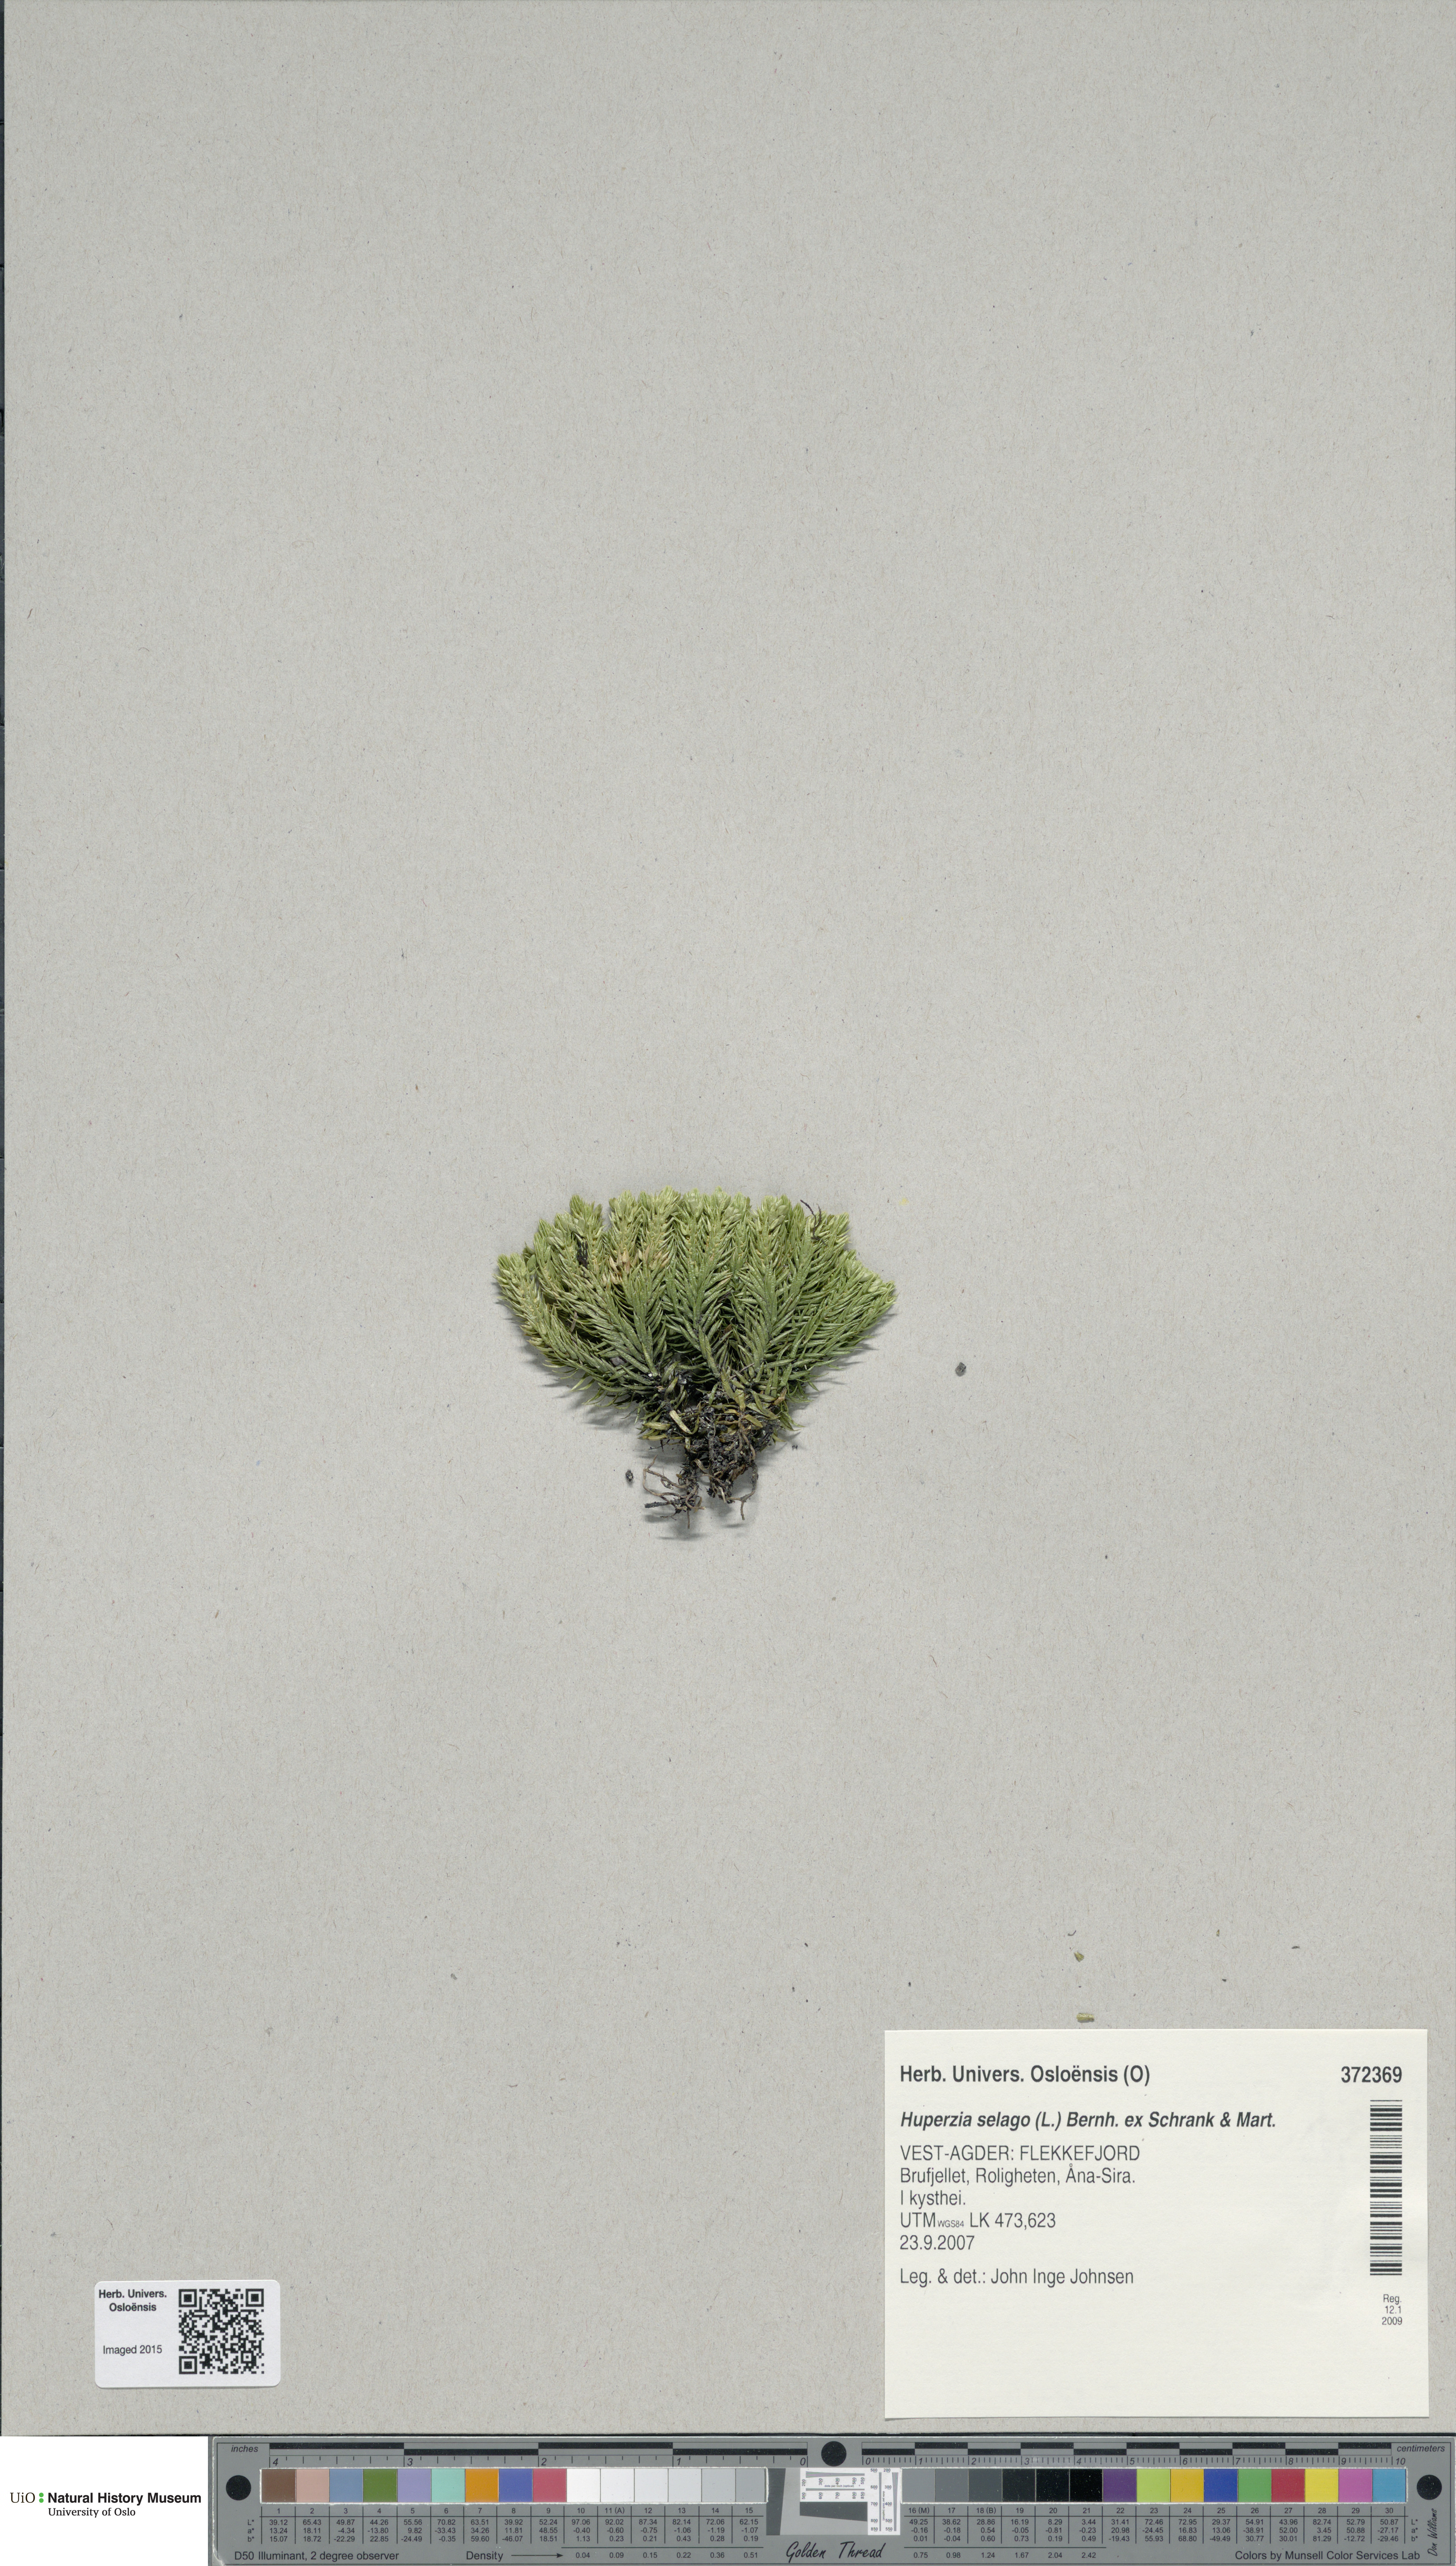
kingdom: Plantae
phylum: Tracheophyta
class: Lycopodiopsida
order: Lycopodiales
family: Lycopodiaceae
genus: Huperzia
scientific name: Huperzia selago
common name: Northern firmoss
